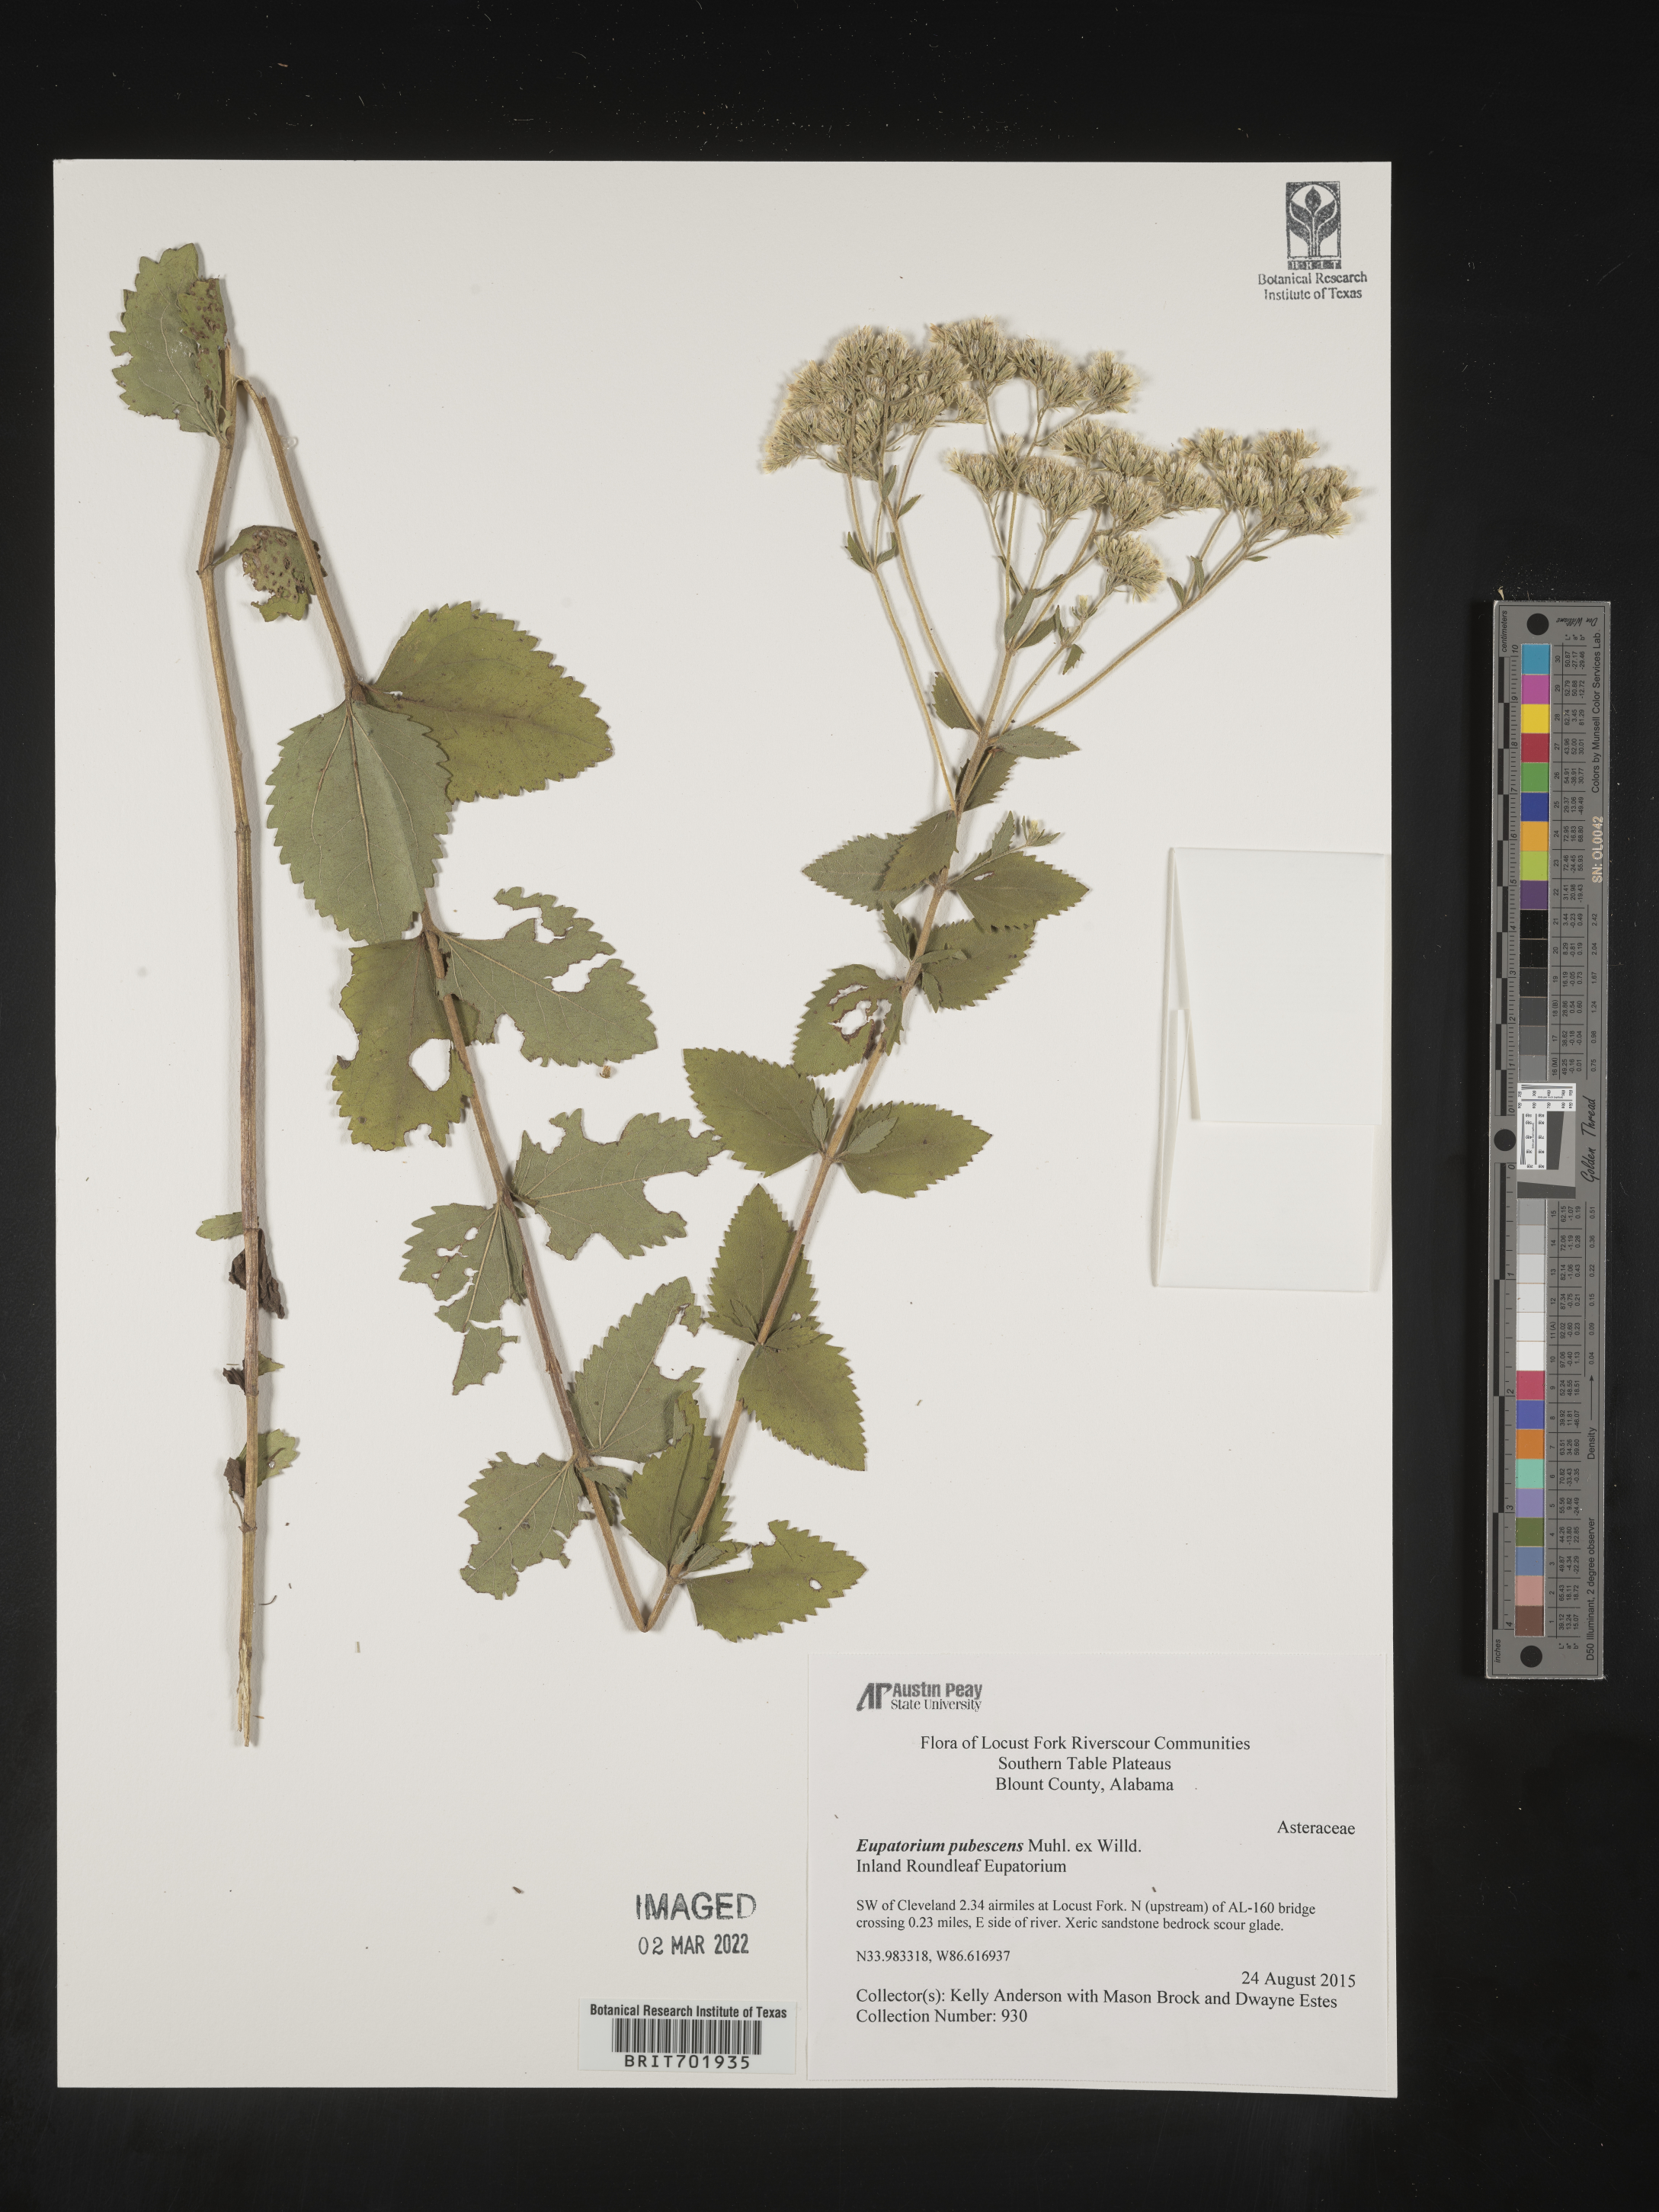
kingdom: Plantae
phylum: Tracheophyta
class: Magnoliopsida
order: Asterales
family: Asteraceae
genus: Eupatorium
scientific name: Eupatorium
